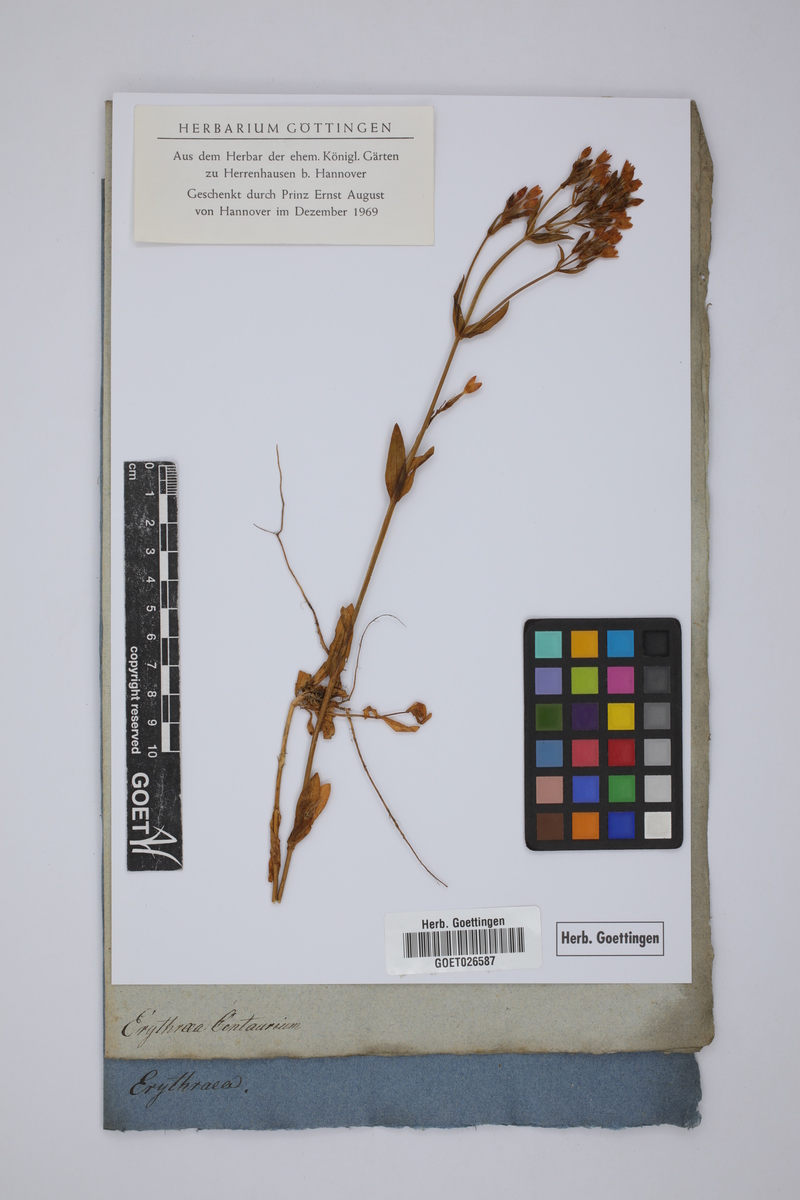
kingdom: Plantae
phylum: Tracheophyta
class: Magnoliopsida
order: Gentianales
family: Gentianaceae
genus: Centaurium
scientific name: Centaurium erythraea
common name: Common centaury
